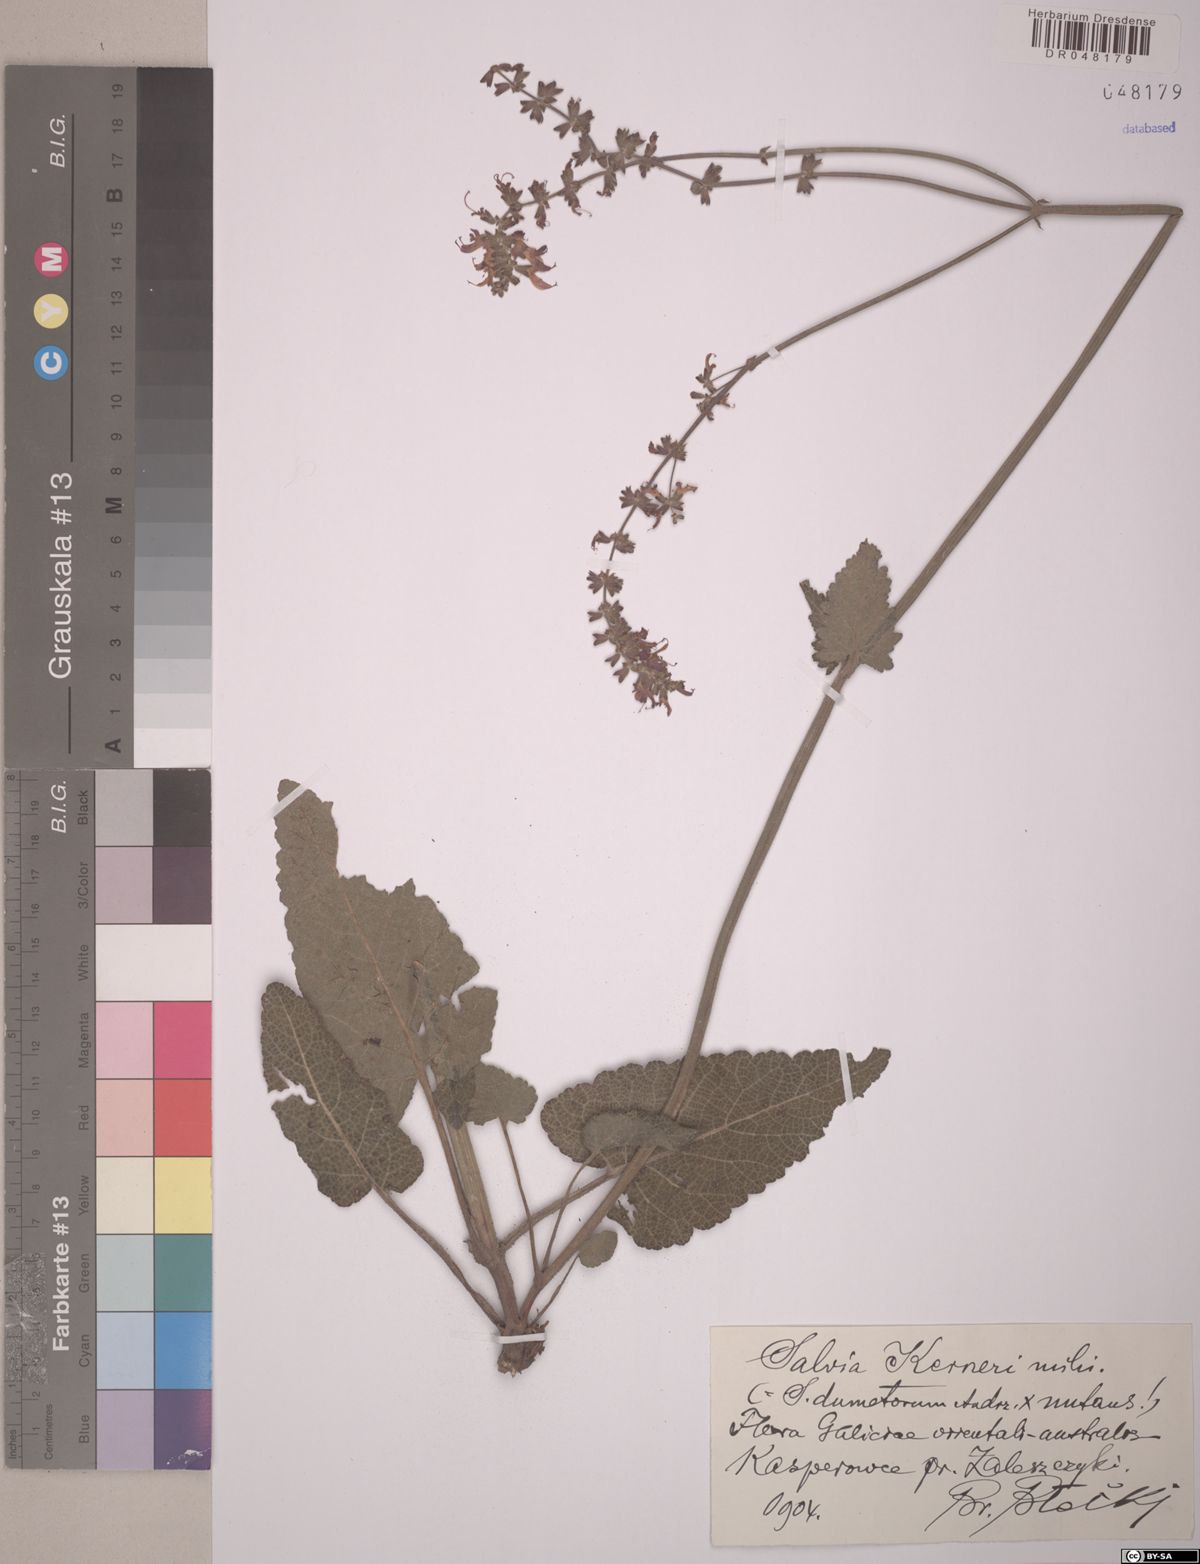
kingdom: Plantae
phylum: Tracheophyta
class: Magnoliopsida
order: Lamiales
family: Lamiaceae
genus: Salvia
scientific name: Salvia kerneri
